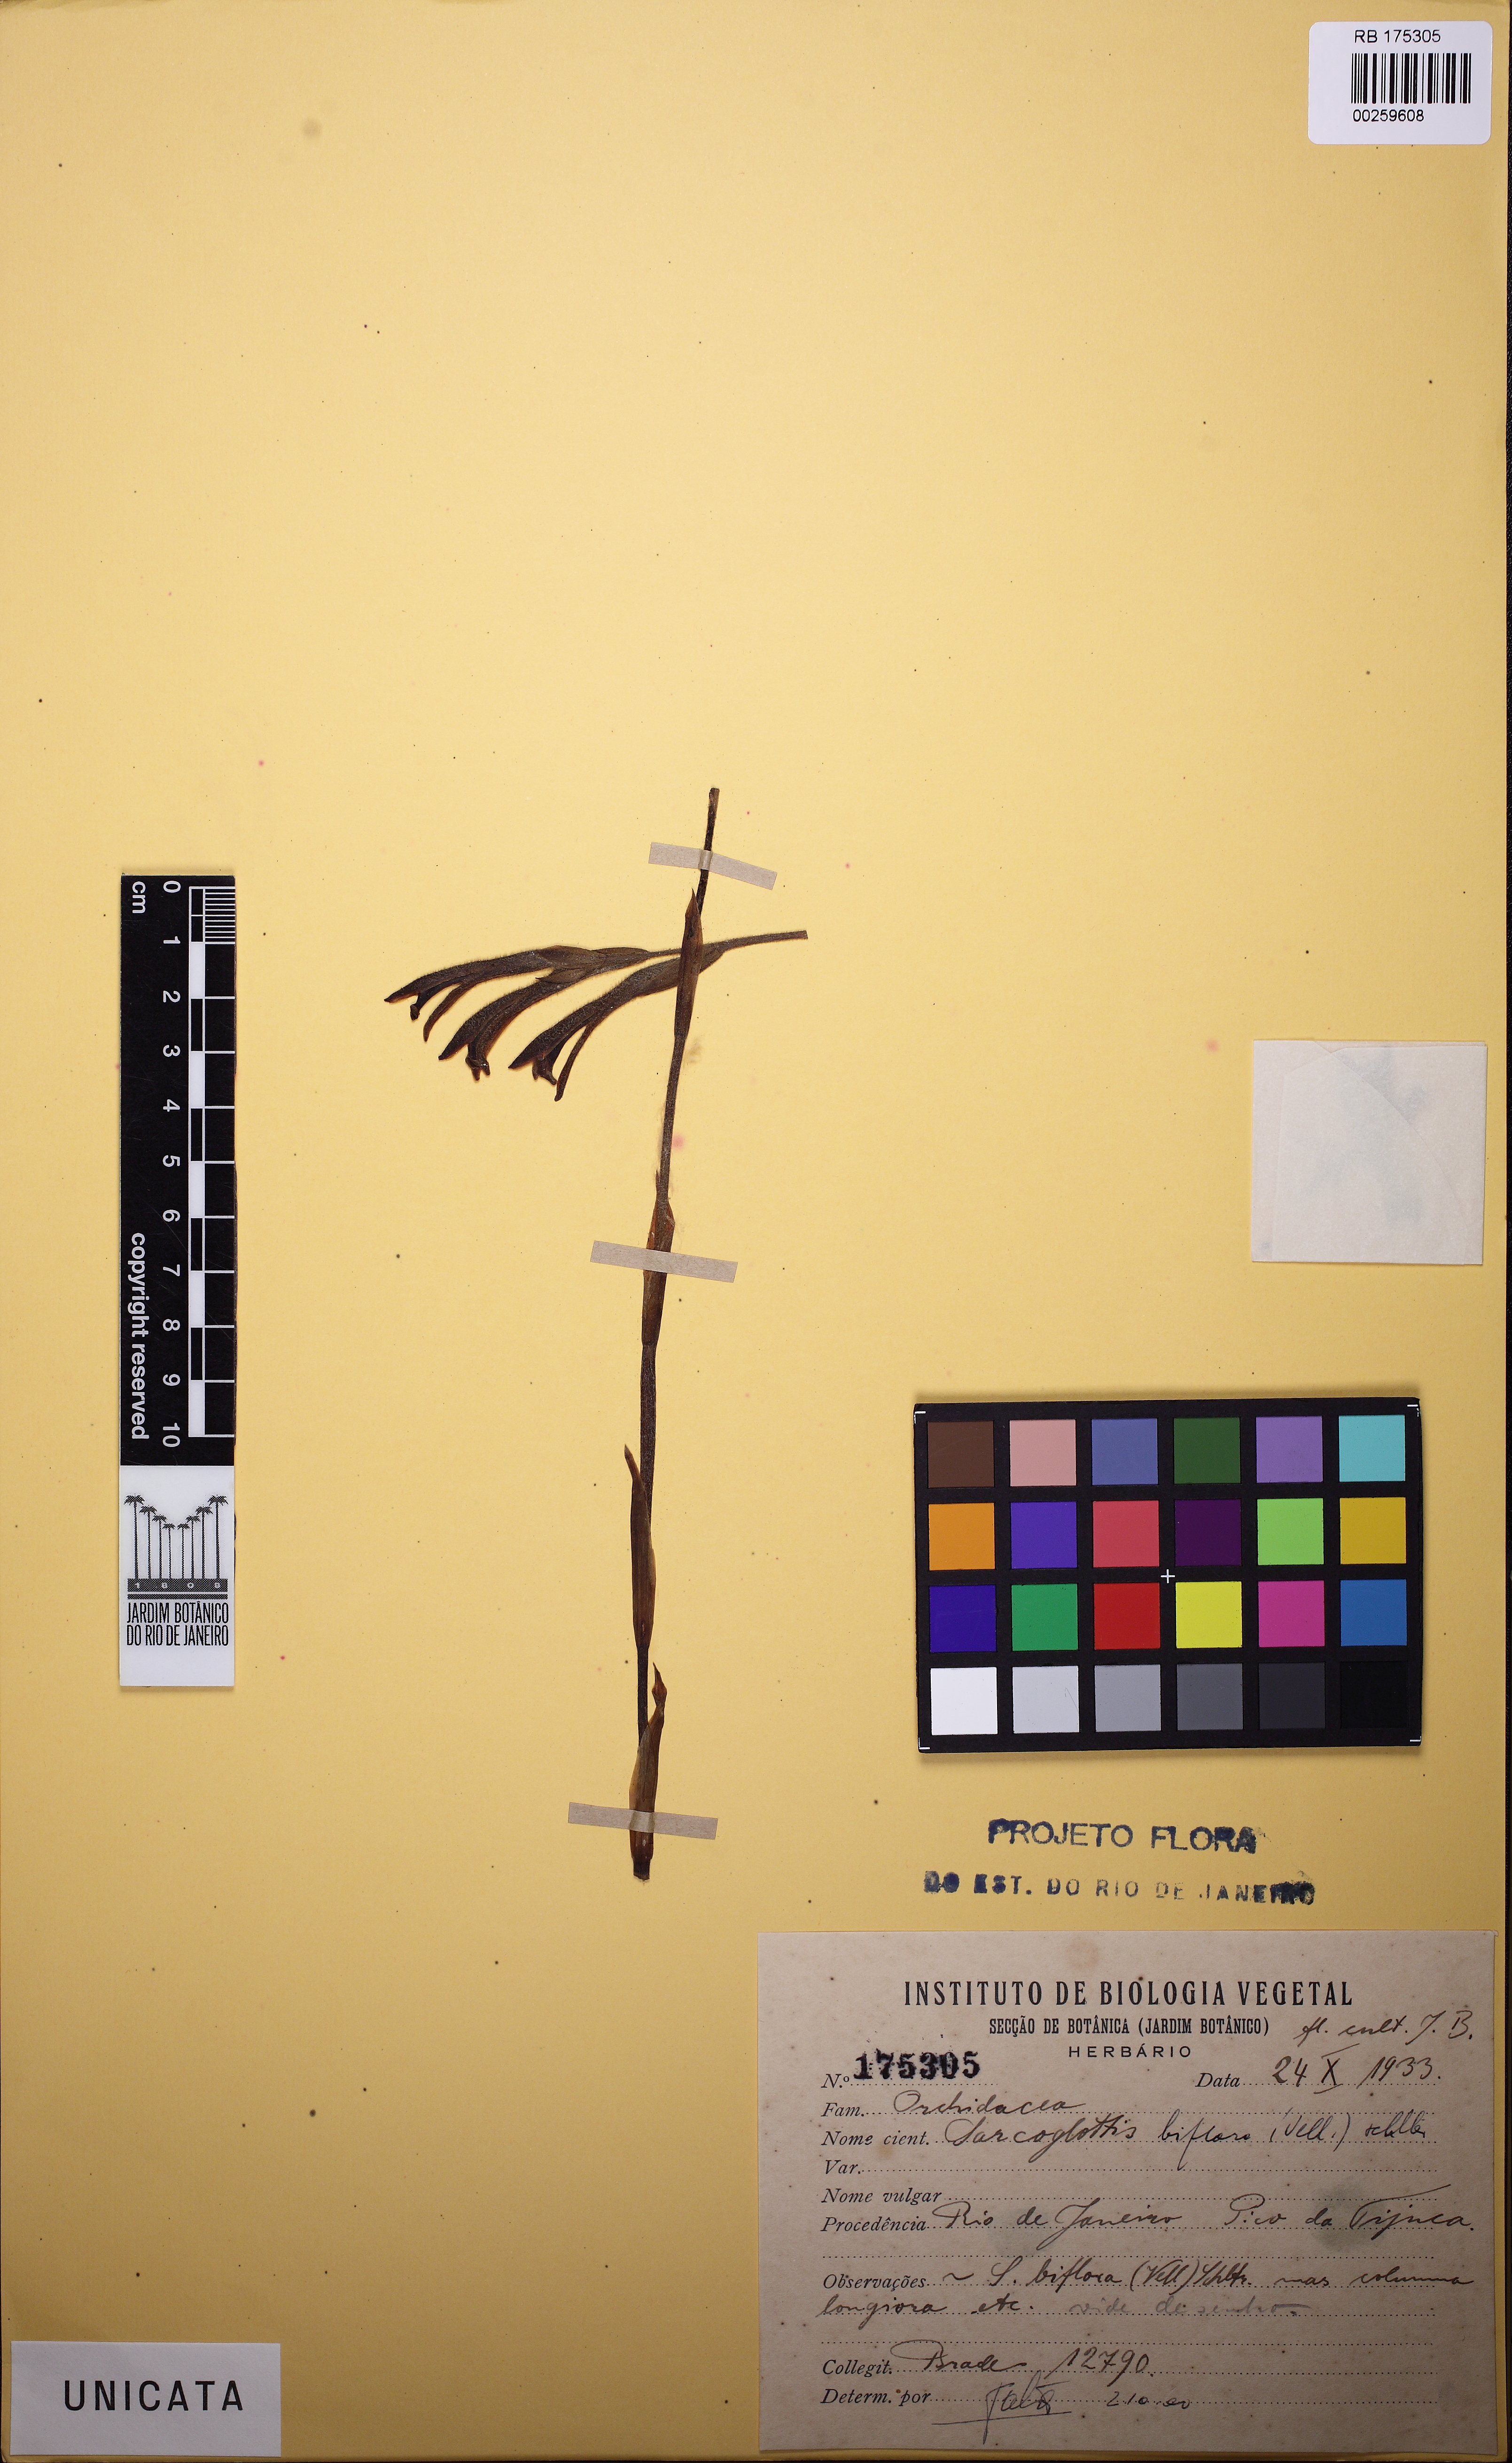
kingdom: Plantae
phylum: Tracheophyta
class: Liliopsida
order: Asparagales
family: Orchidaceae
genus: Sarcoglottis
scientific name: Sarcoglottis biflora
